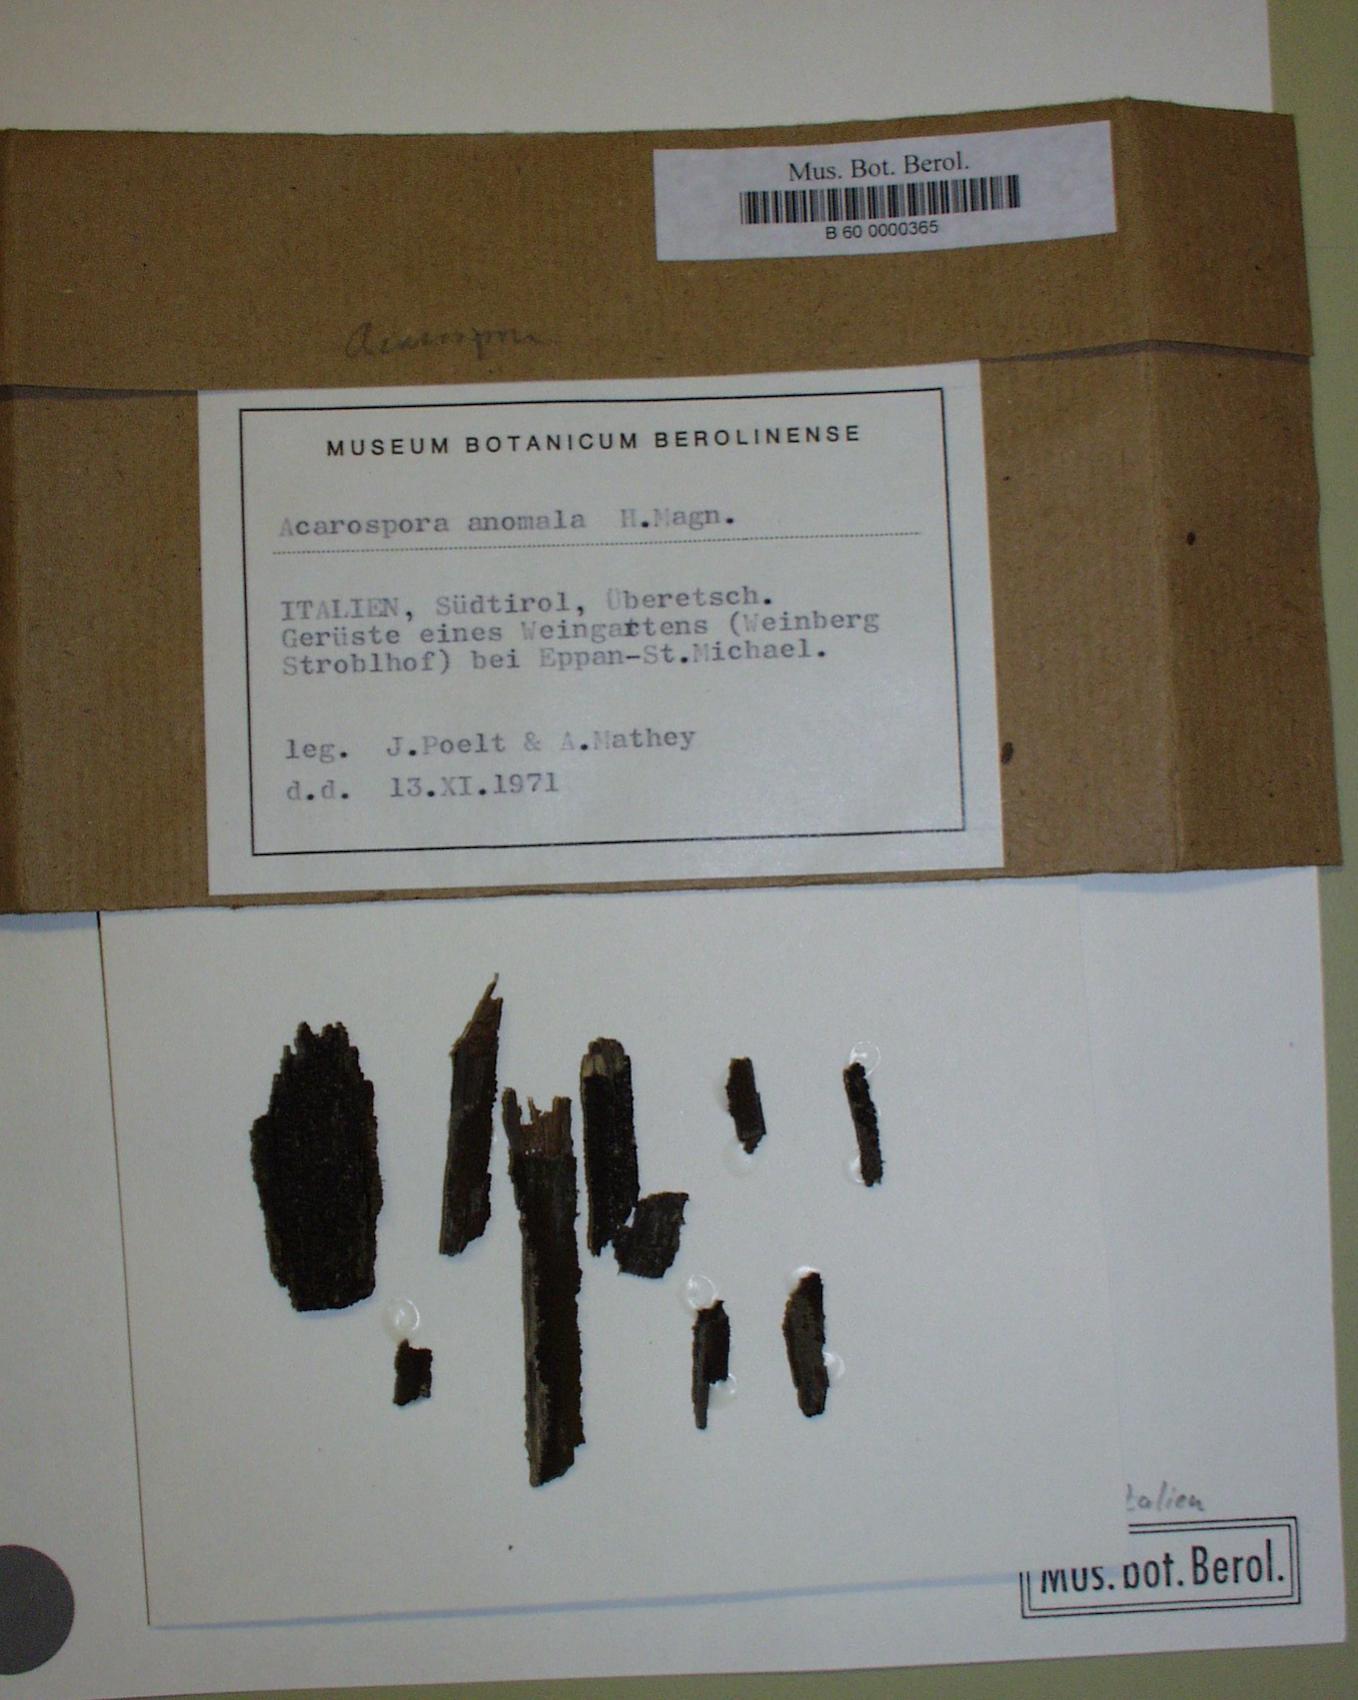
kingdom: Fungi
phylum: Ascomycota
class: Lecanoromycetes
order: Acarosporales
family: Acarosporaceae
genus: Acarospora
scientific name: Acarospora anomala
